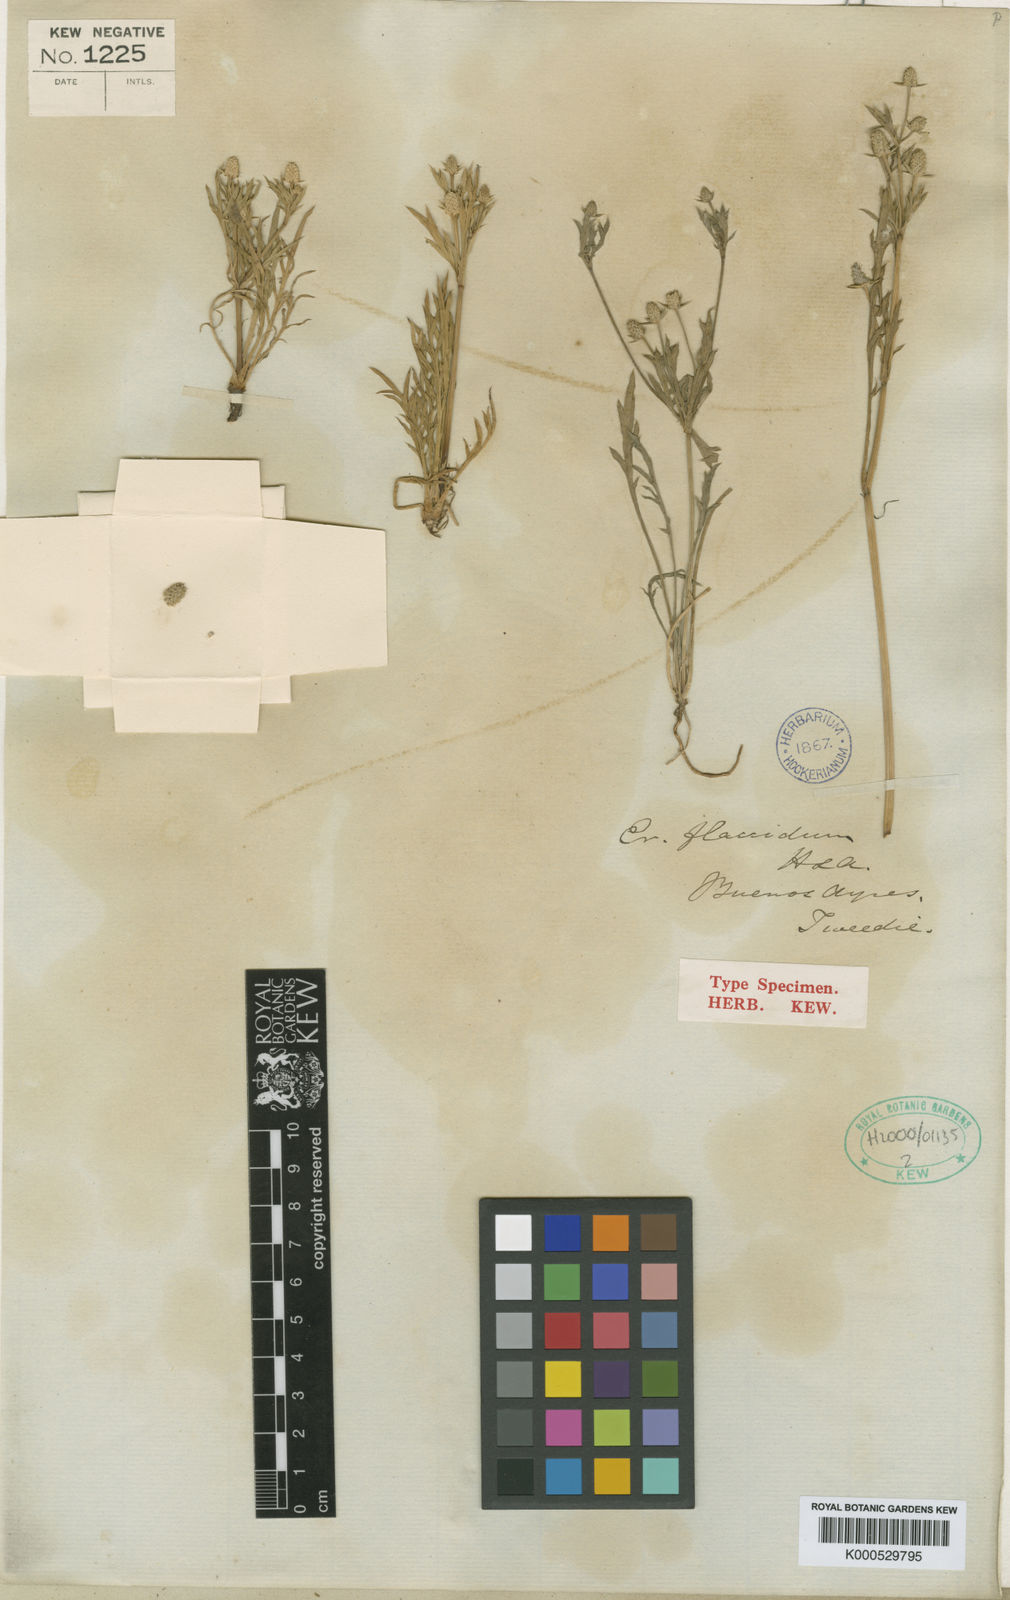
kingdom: Plantae
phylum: Tracheophyta
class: Magnoliopsida
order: Apiales
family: Apiaceae
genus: Eryngium
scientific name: Eryngium divaricatum
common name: Ballast eryngo
